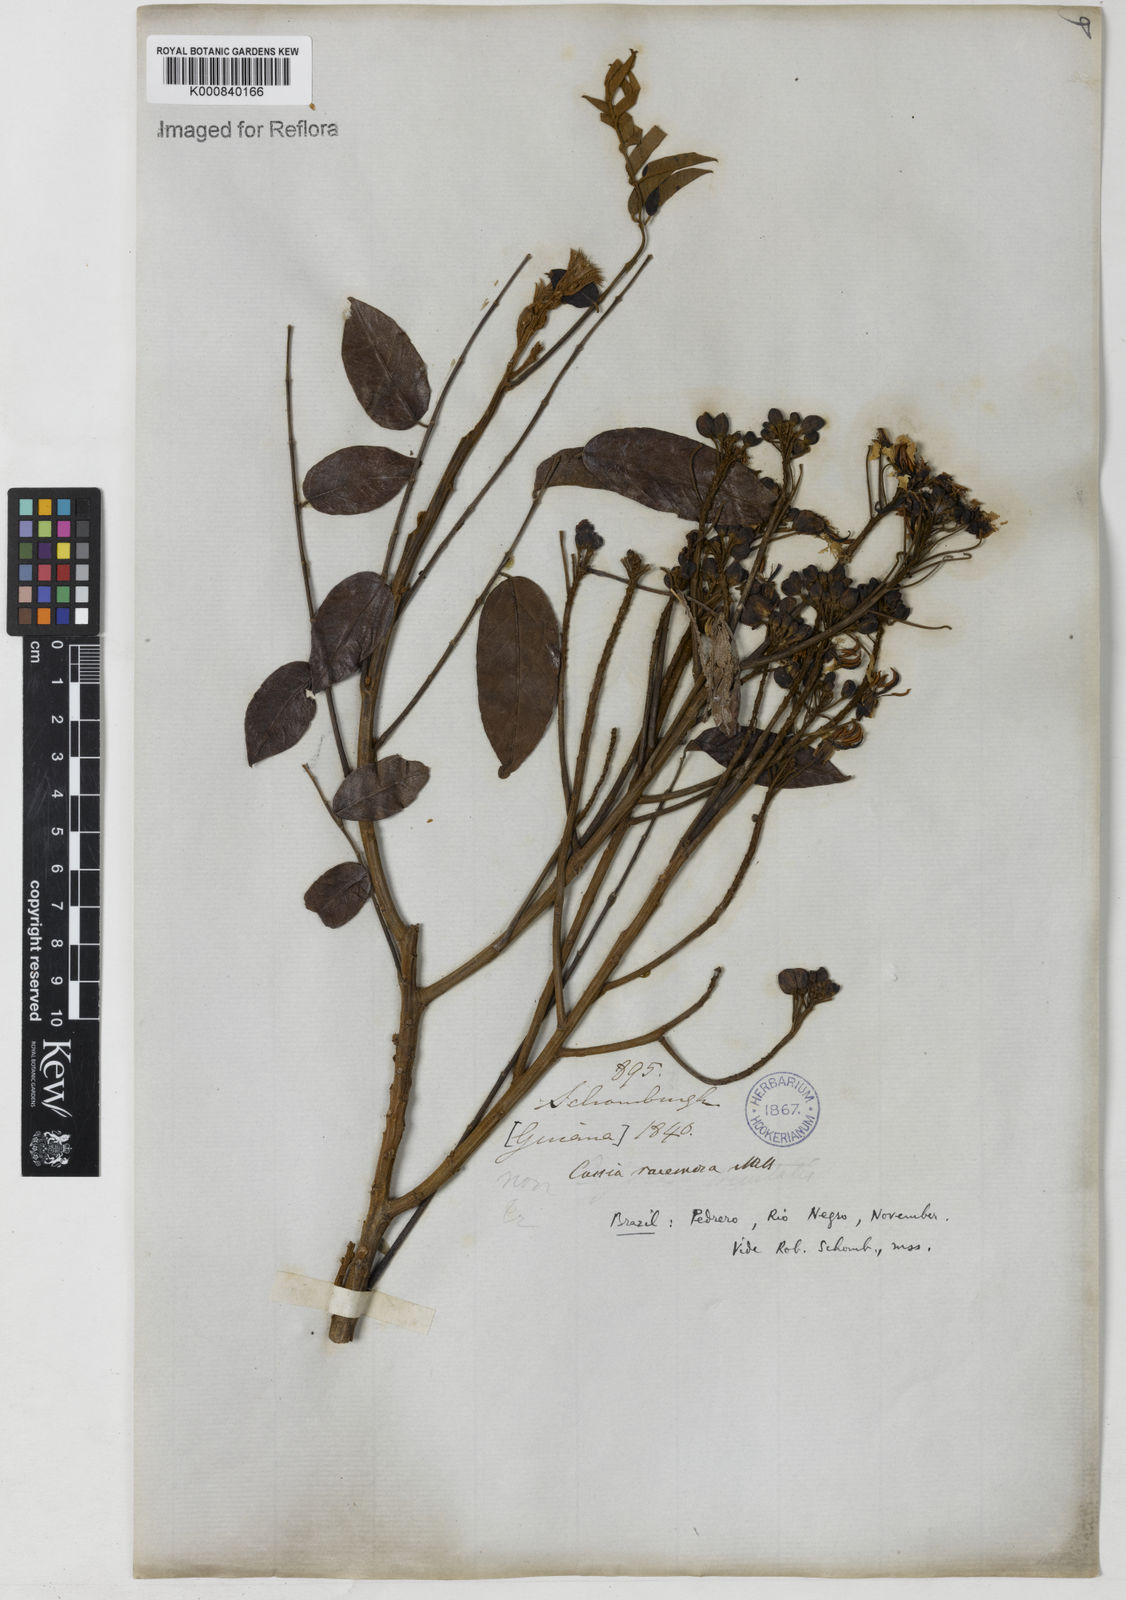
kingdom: Plantae
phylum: Tracheophyta
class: Magnoliopsida
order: Fabales
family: Fabaceae
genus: Senna
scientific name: Senna silvestris
